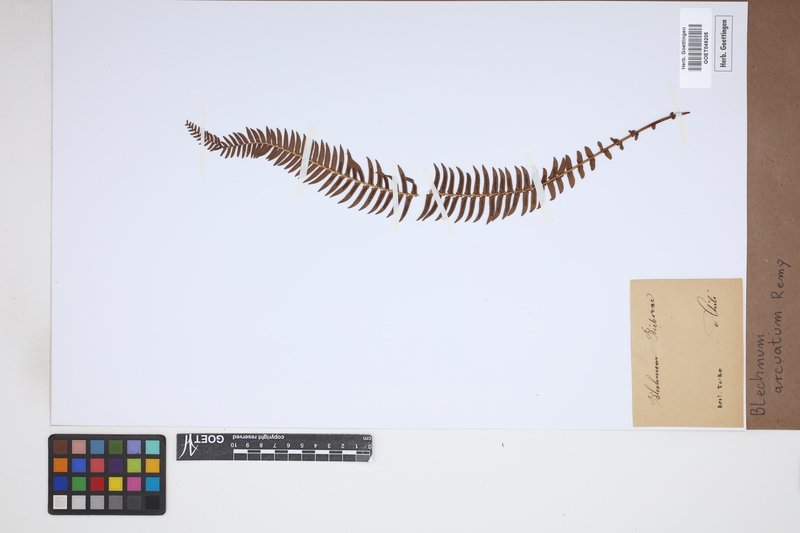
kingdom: Plantae
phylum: Tracheophyta
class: Polypodiopsida
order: Polypodiales
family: Blechnaceae
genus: Blechnum
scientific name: Blechnum arcuatum
